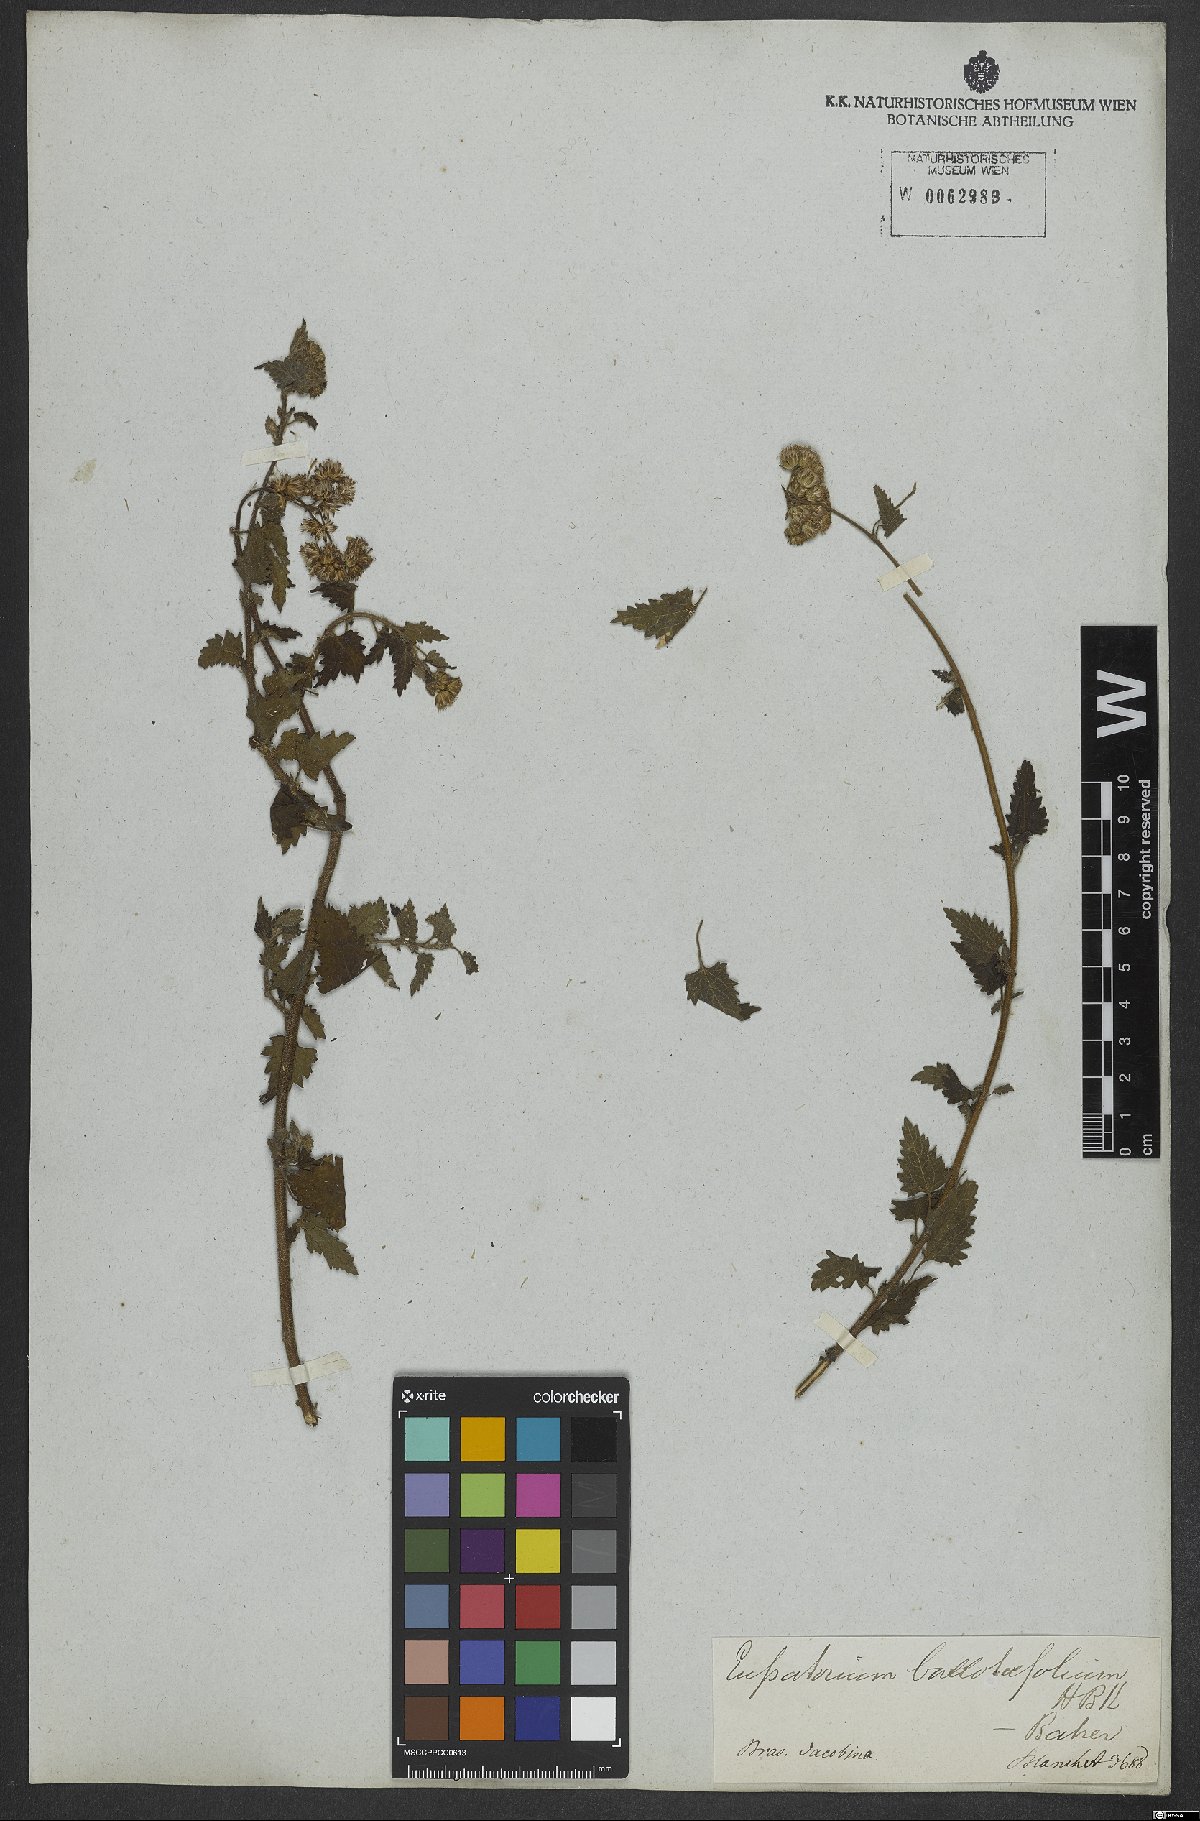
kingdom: Plantae
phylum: Tracheophyta
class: Magnoliopsida
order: Asterales
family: Asteraceae
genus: Lourteigia
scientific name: Lourteigia ballotifolia
